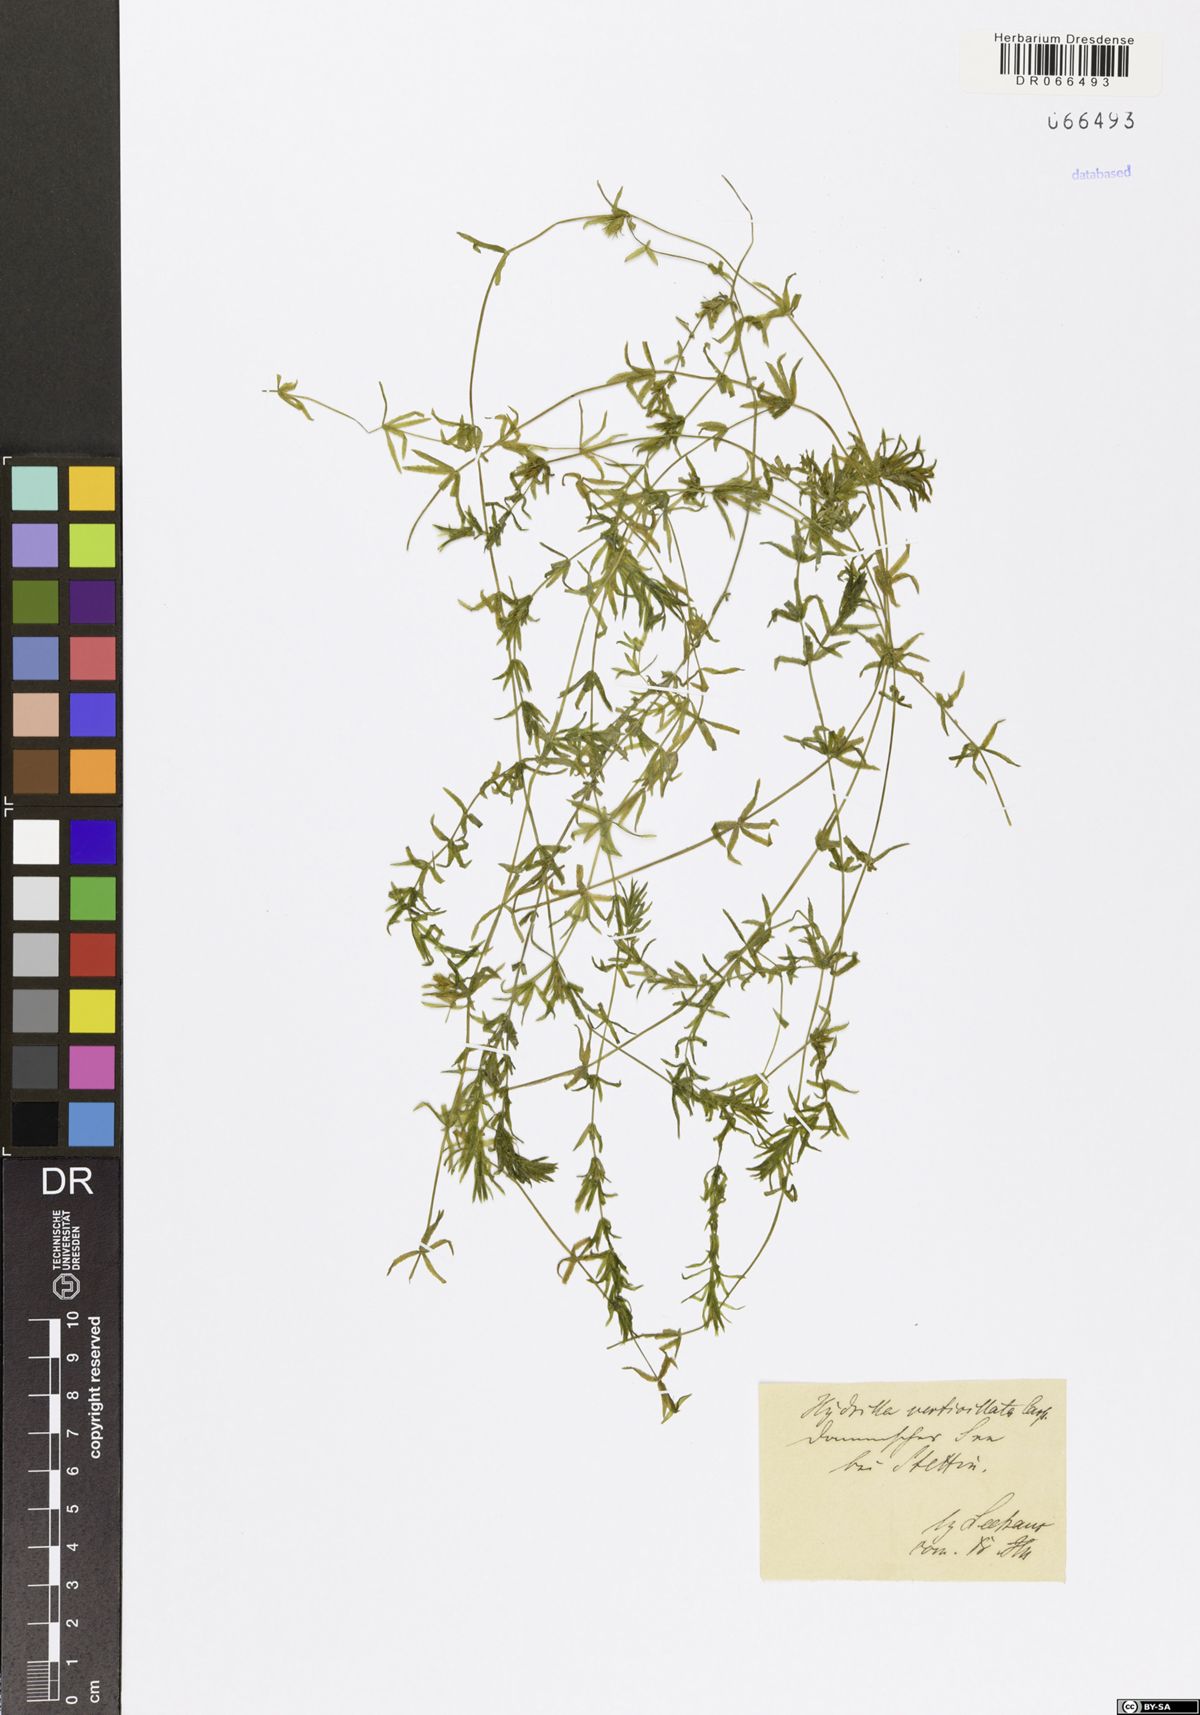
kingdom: Plantae
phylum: Tracheophyta
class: Liliopsida
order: Alismatales
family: Hydrocharitaceae
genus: Hydrilla
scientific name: Hydrilla verticillata
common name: Florida-elodea
